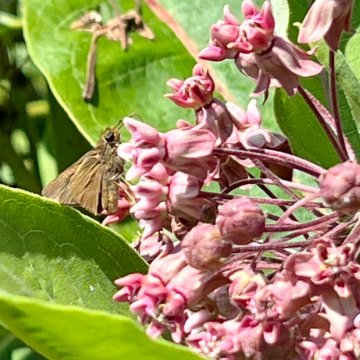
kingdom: Animalia
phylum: Arthropoda
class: Insecta
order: Lepidoptera
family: Hesperiidae
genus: Euphyes
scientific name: Euphyes vestris
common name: Dun Skipper
